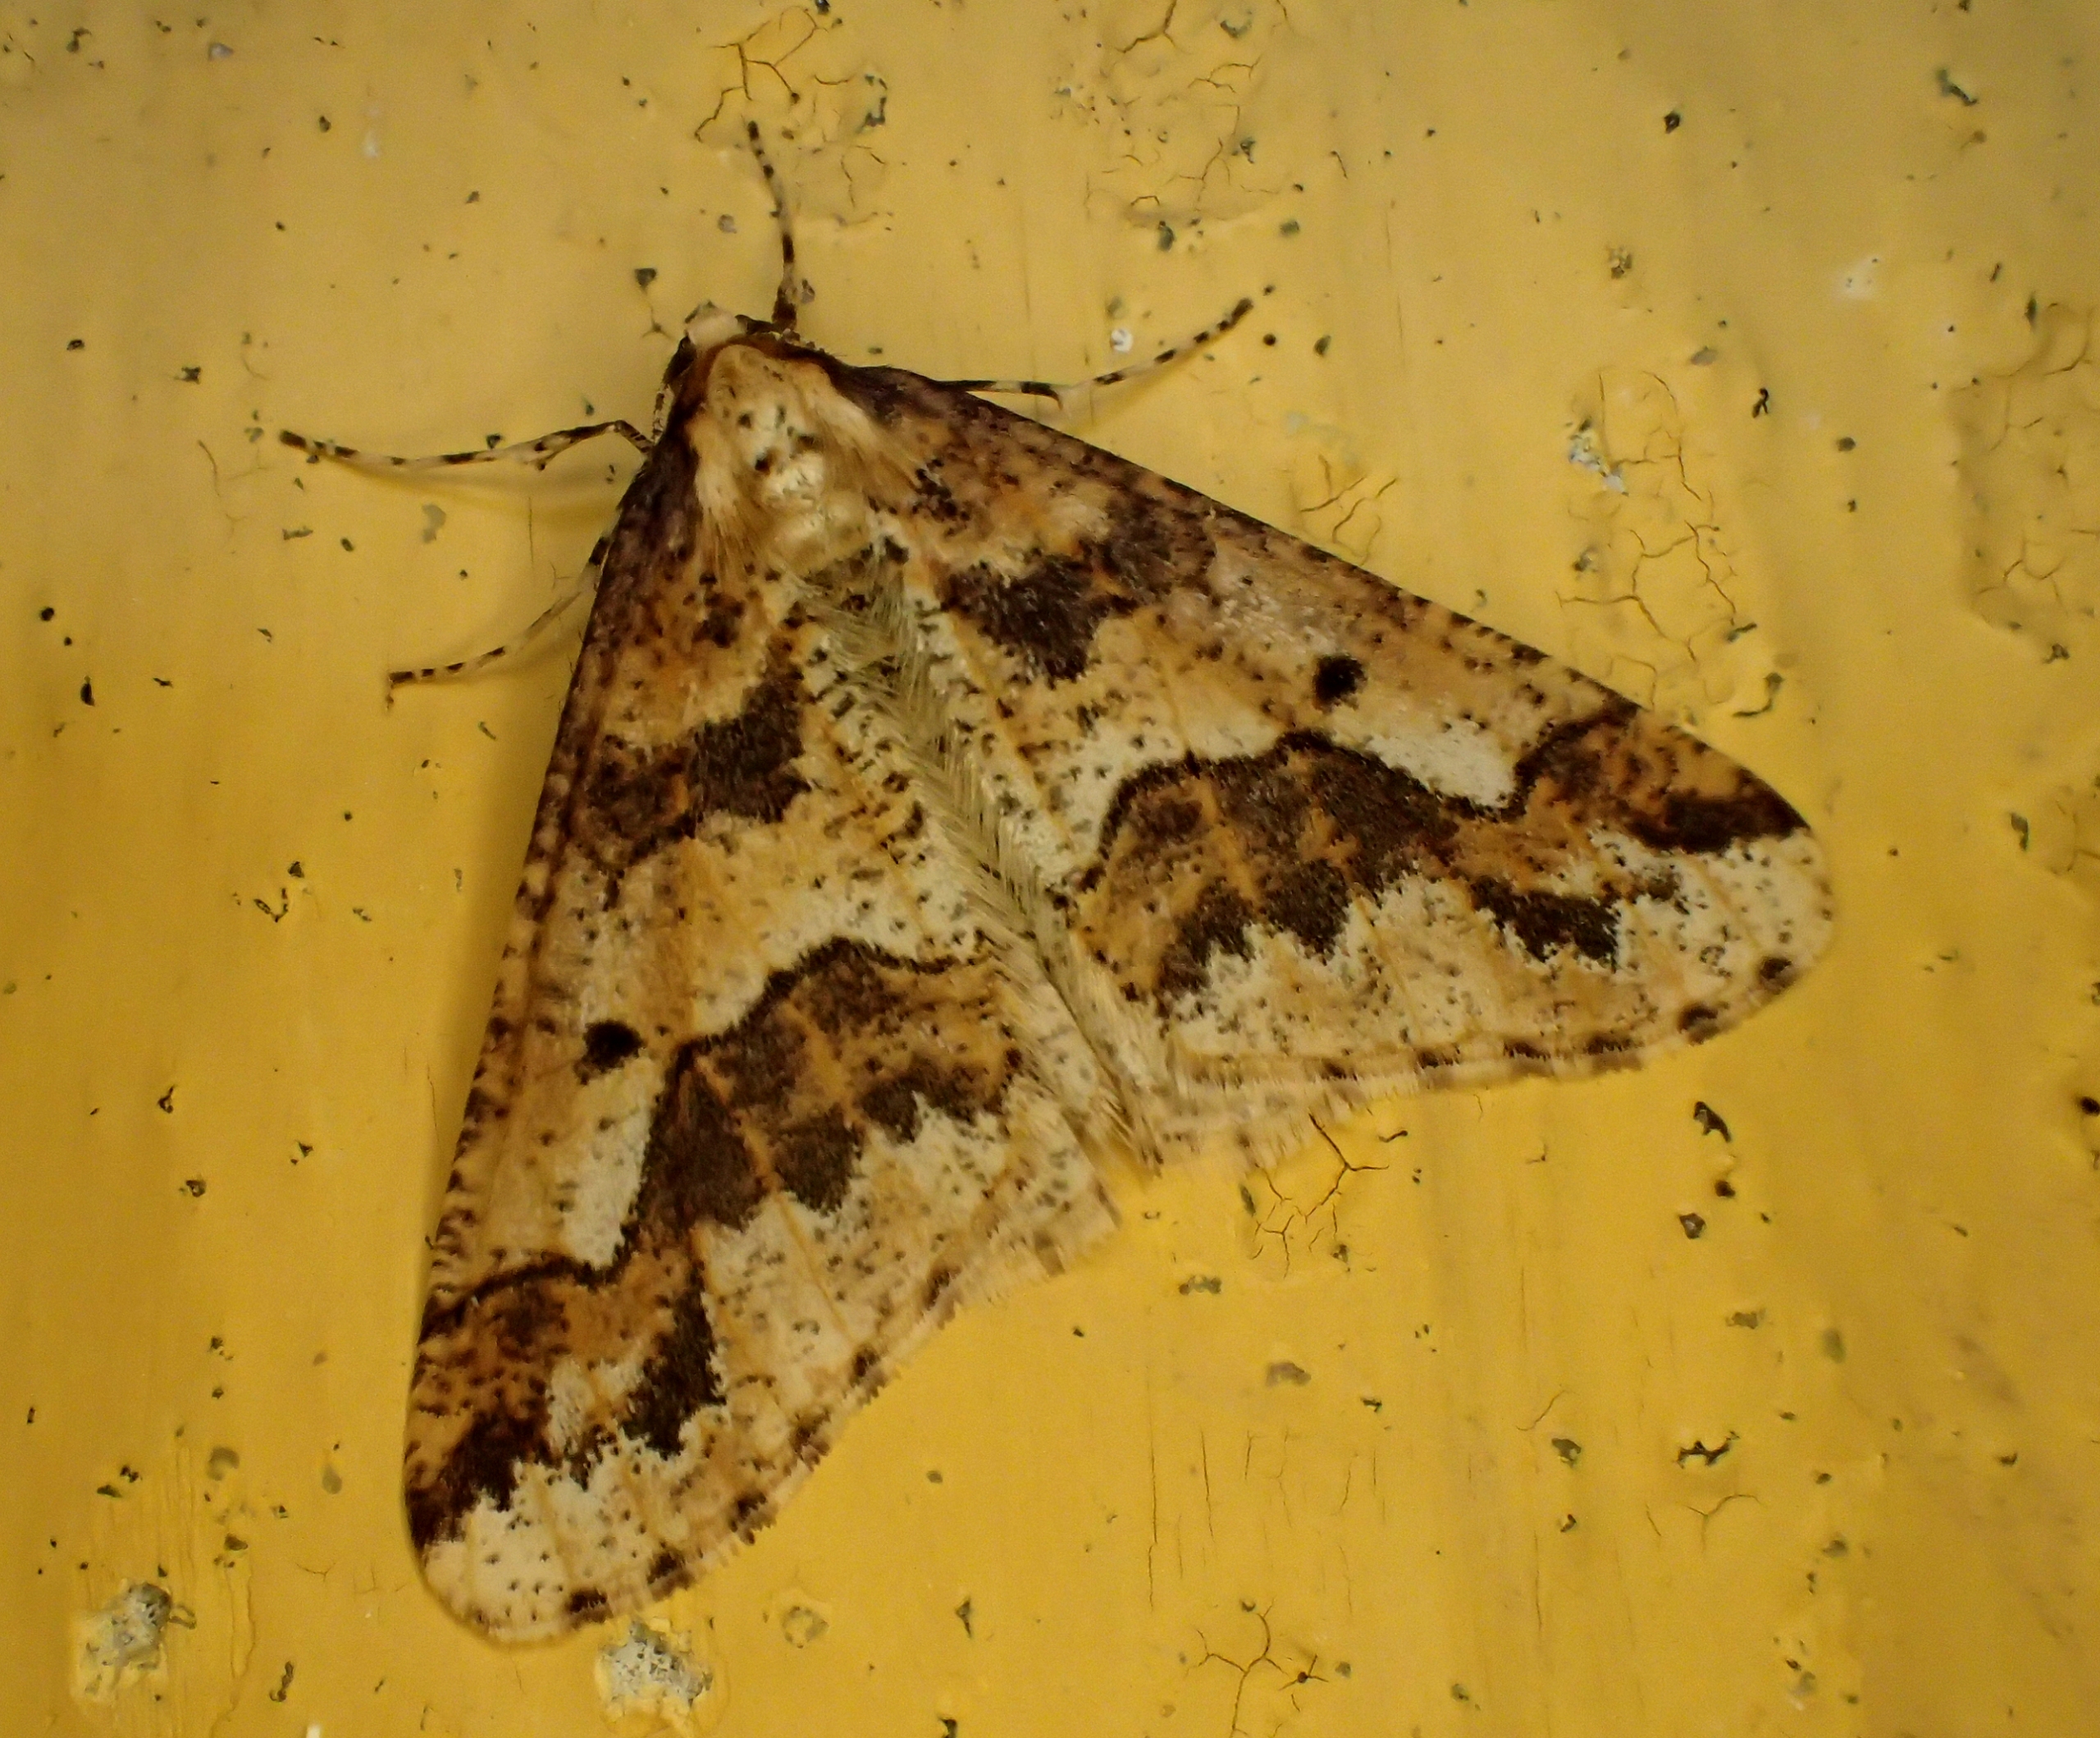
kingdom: Animalia
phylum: Arthropoda
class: Insecta
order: Lepidoptera
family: Geometridae
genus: Erannis
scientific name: Erannis defoliaria
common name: Stor frostmåler
